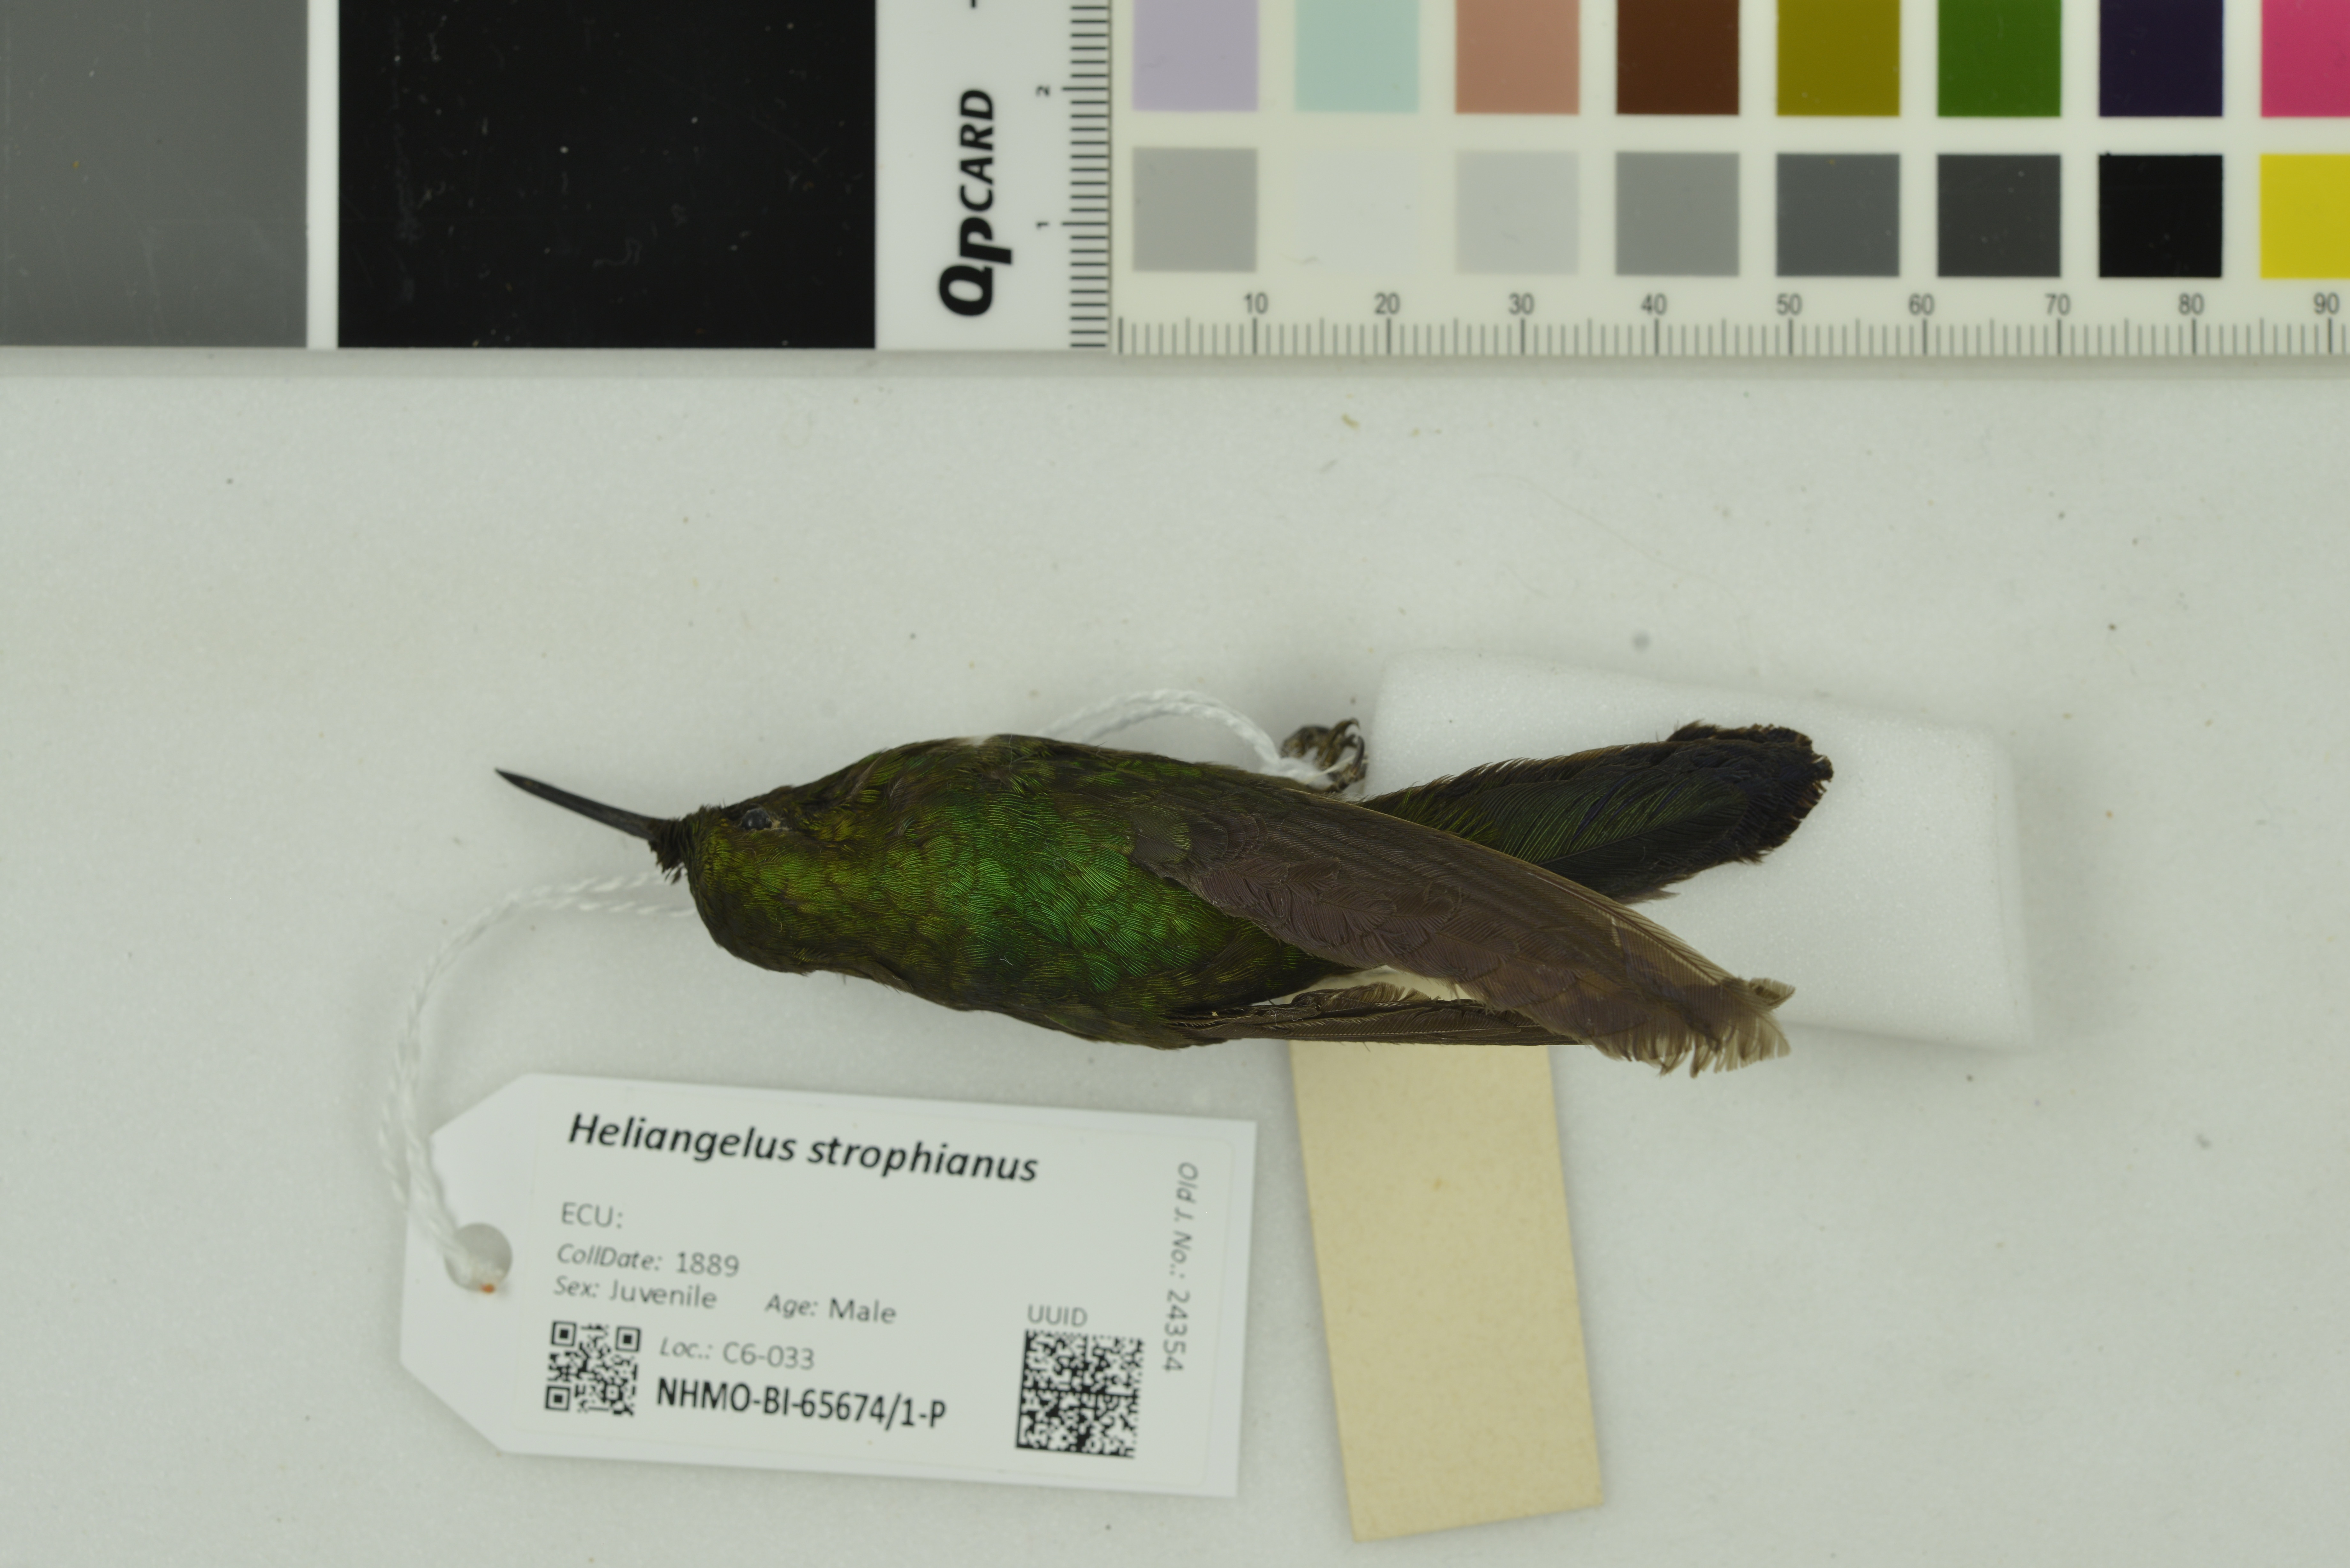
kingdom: Animalia
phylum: Chordata
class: Aves
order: Apodiformes
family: Trochilidae
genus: Heliangelus
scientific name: Heliangelus strophianus
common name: Gorgeted sunangel
